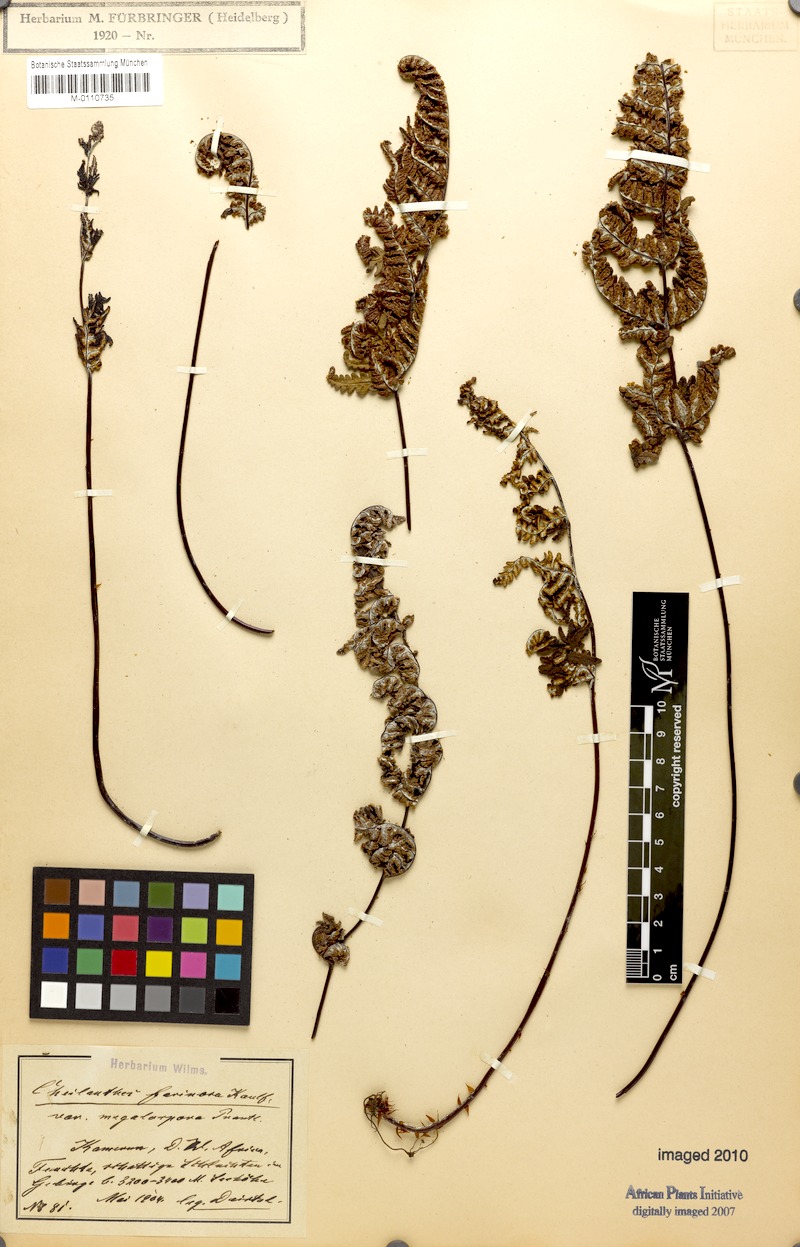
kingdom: Plantae
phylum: Tracheophyta
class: Polypodiopsida
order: Polypodiales
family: Pteridaceae
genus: Aleuritopteris
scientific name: Aleuritopteris farinosa
